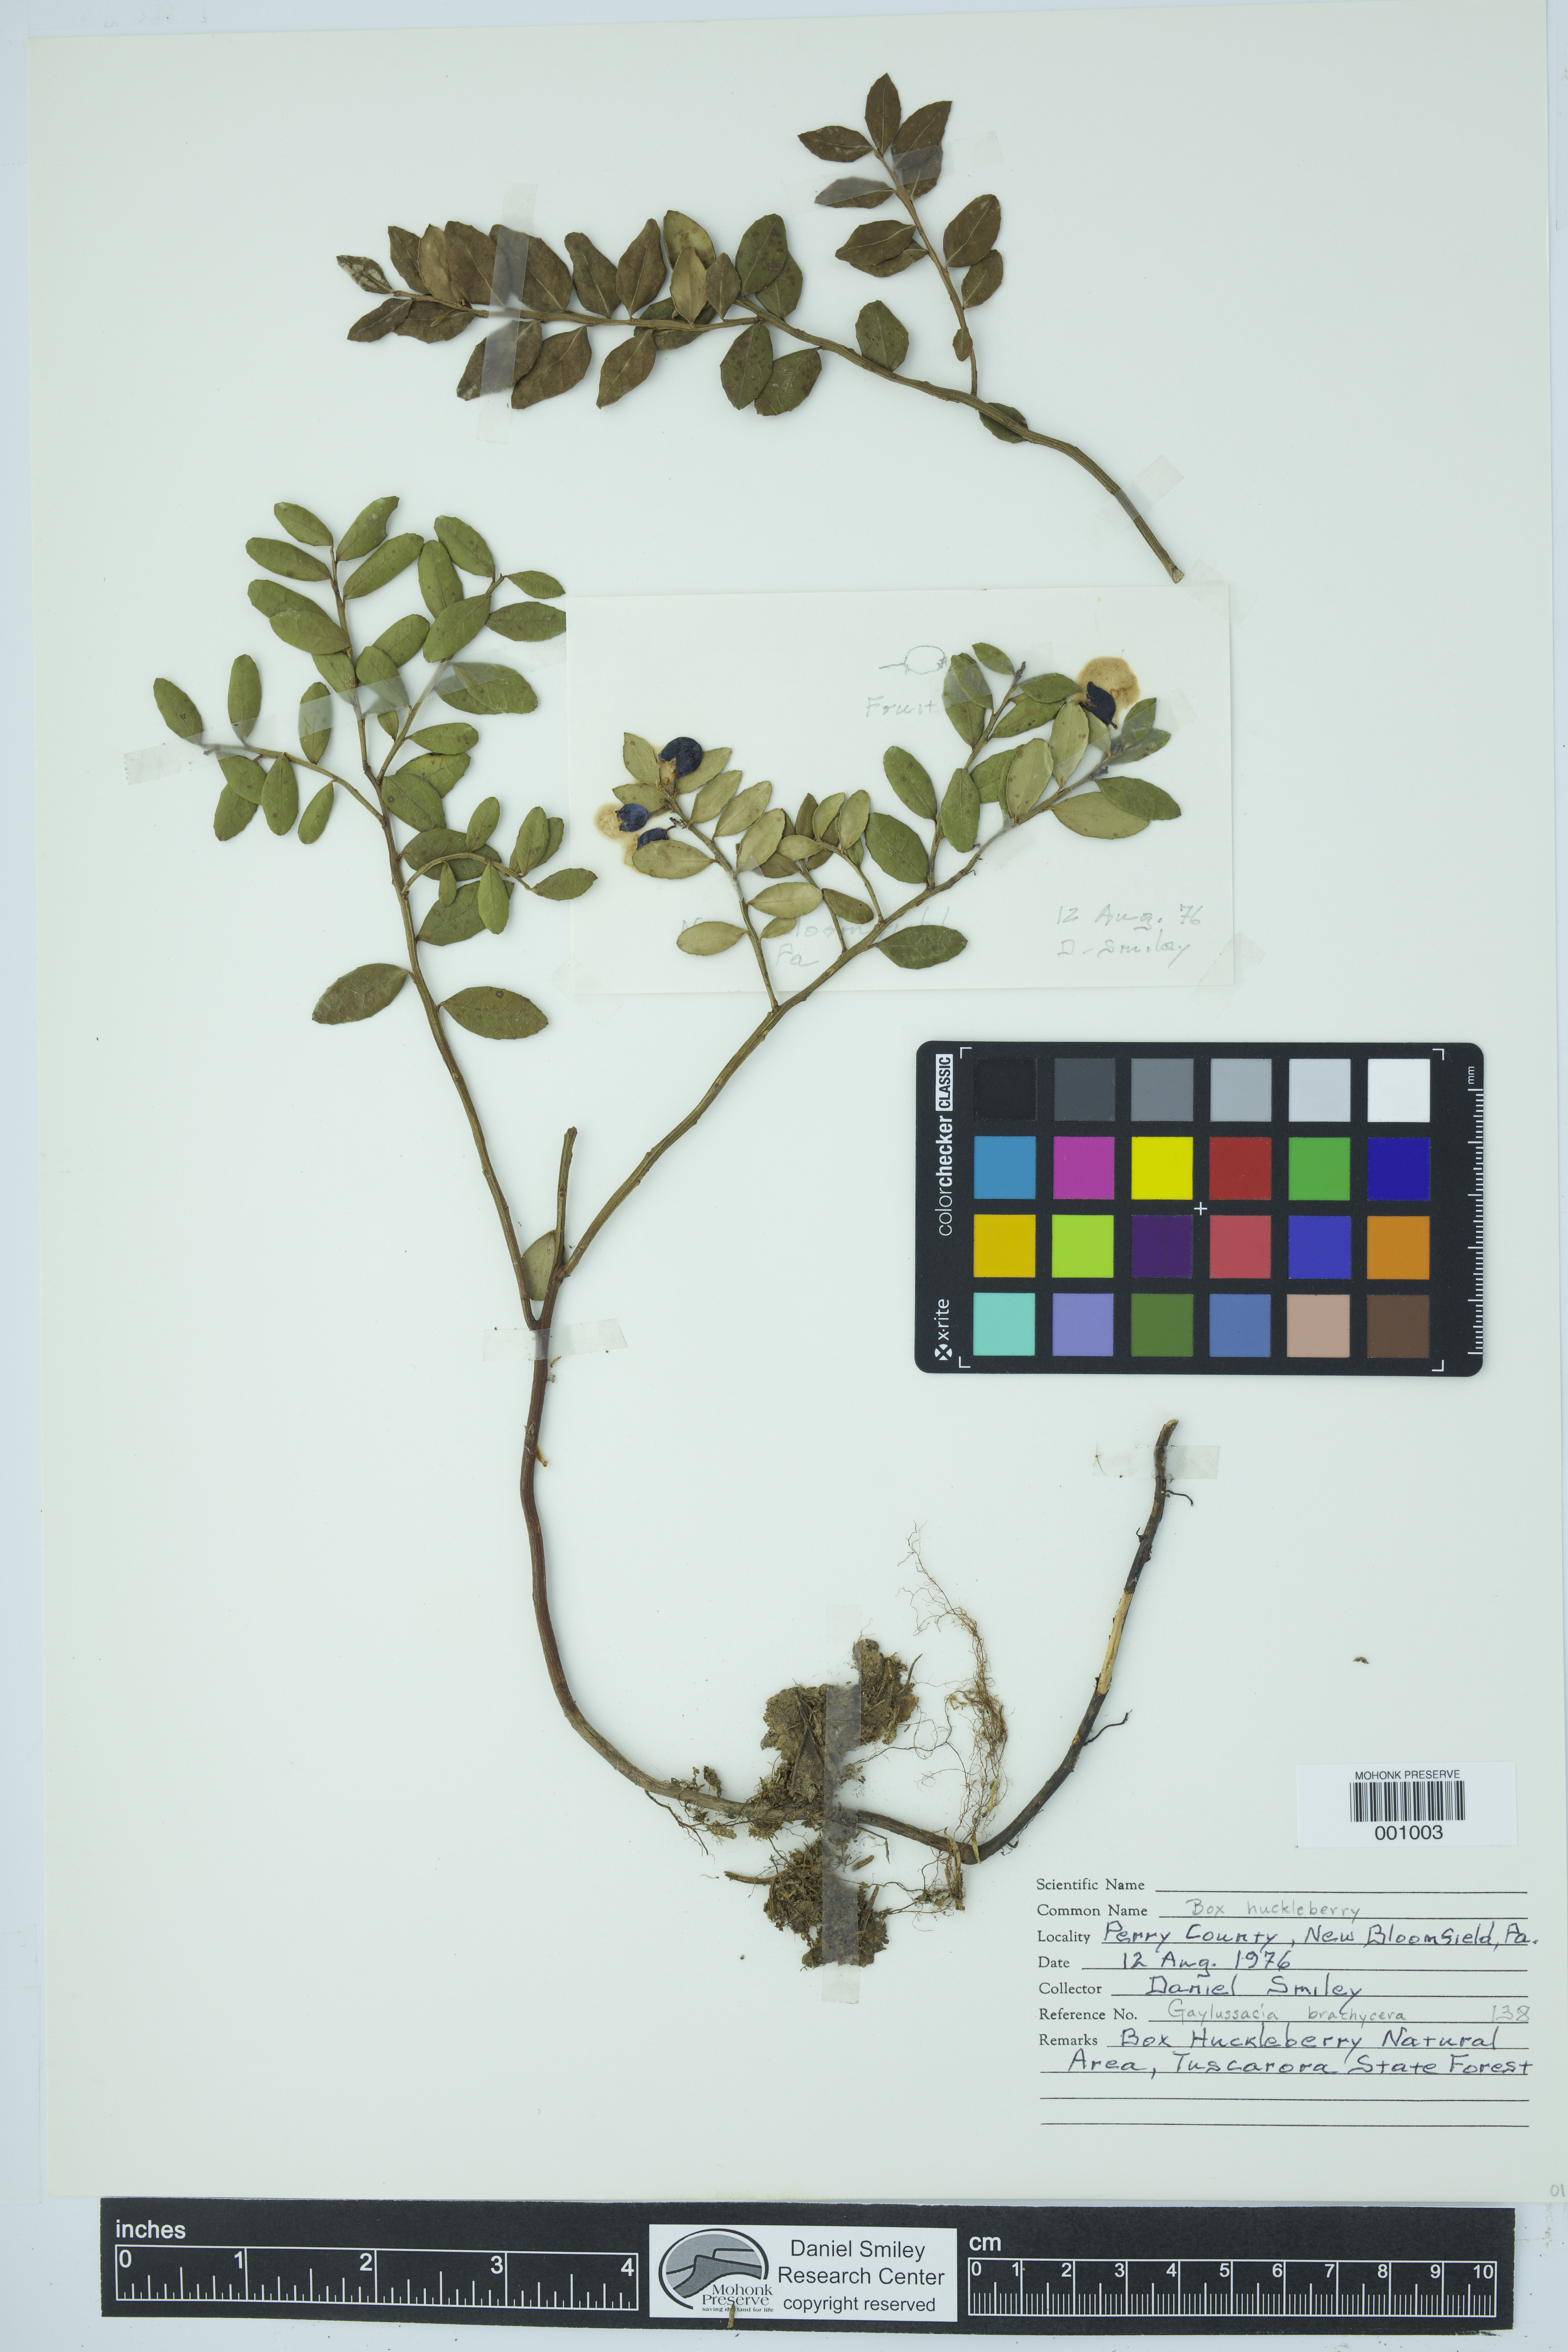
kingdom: Plantae
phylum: Tracheophyta
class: Magnoliopsida
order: Ericales
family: Ericaceae
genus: Gaylussacia
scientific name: Gaylussacia brachycera
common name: Box huckleberry
